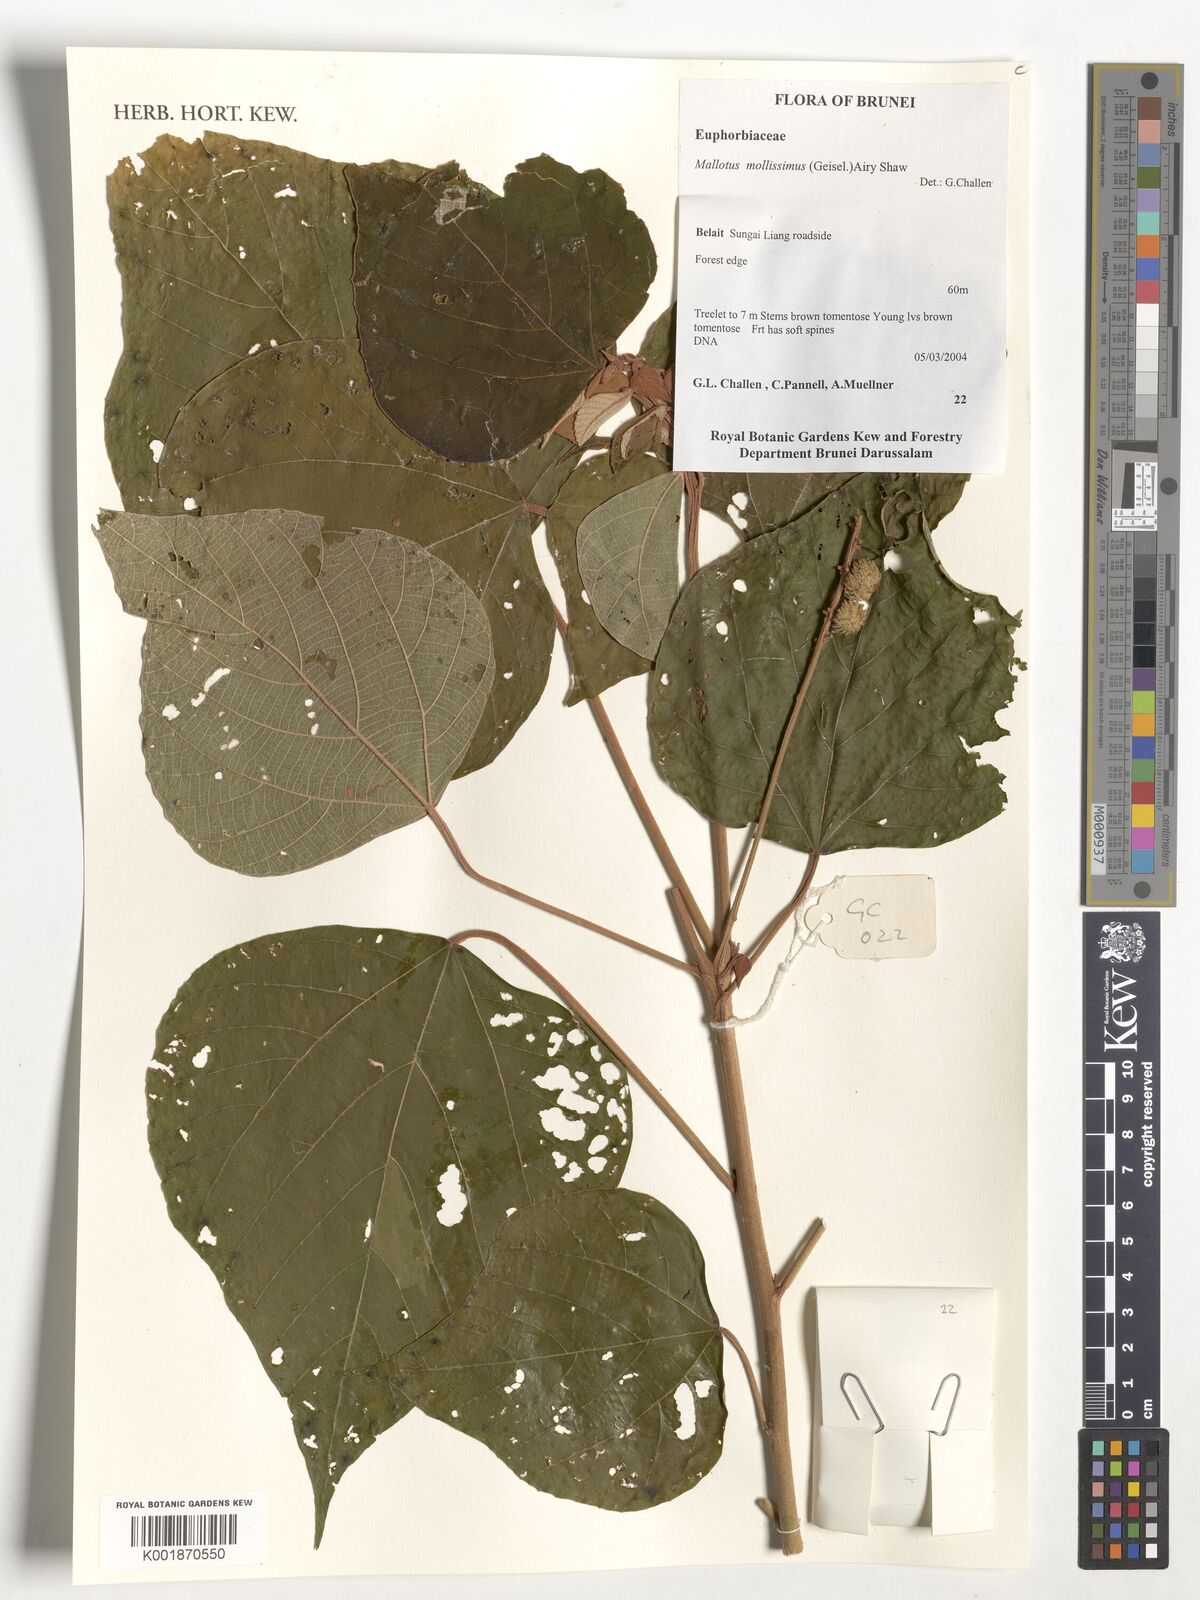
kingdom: Plantae
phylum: Tracheophyta
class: Magnoliopsida
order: Malpighiales
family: Euphorbiaceae
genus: Mallotus
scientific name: Mallotus mollissimus
